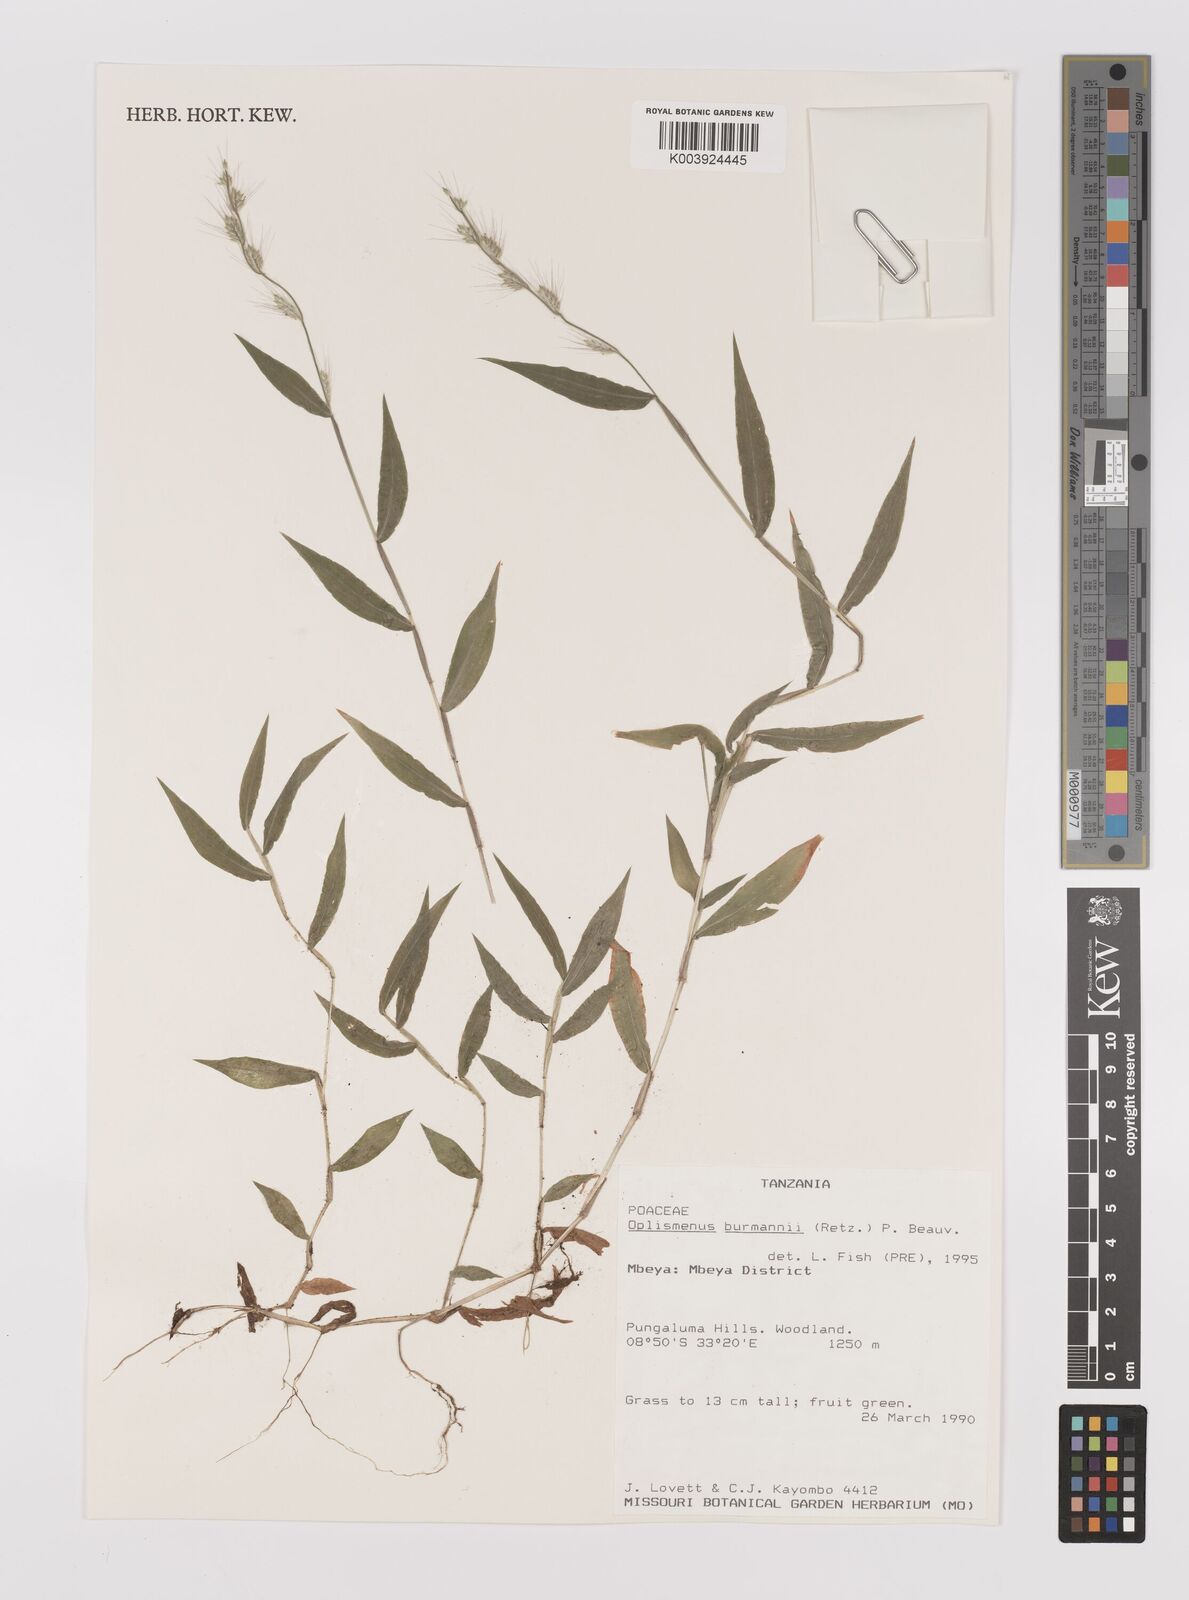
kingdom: Plantae
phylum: Tracheophyta
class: Liliopsida
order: Poales
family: Poaceae
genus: Oplismenus
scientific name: Oplismenus burmanni
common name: Burmann's basketgrass
